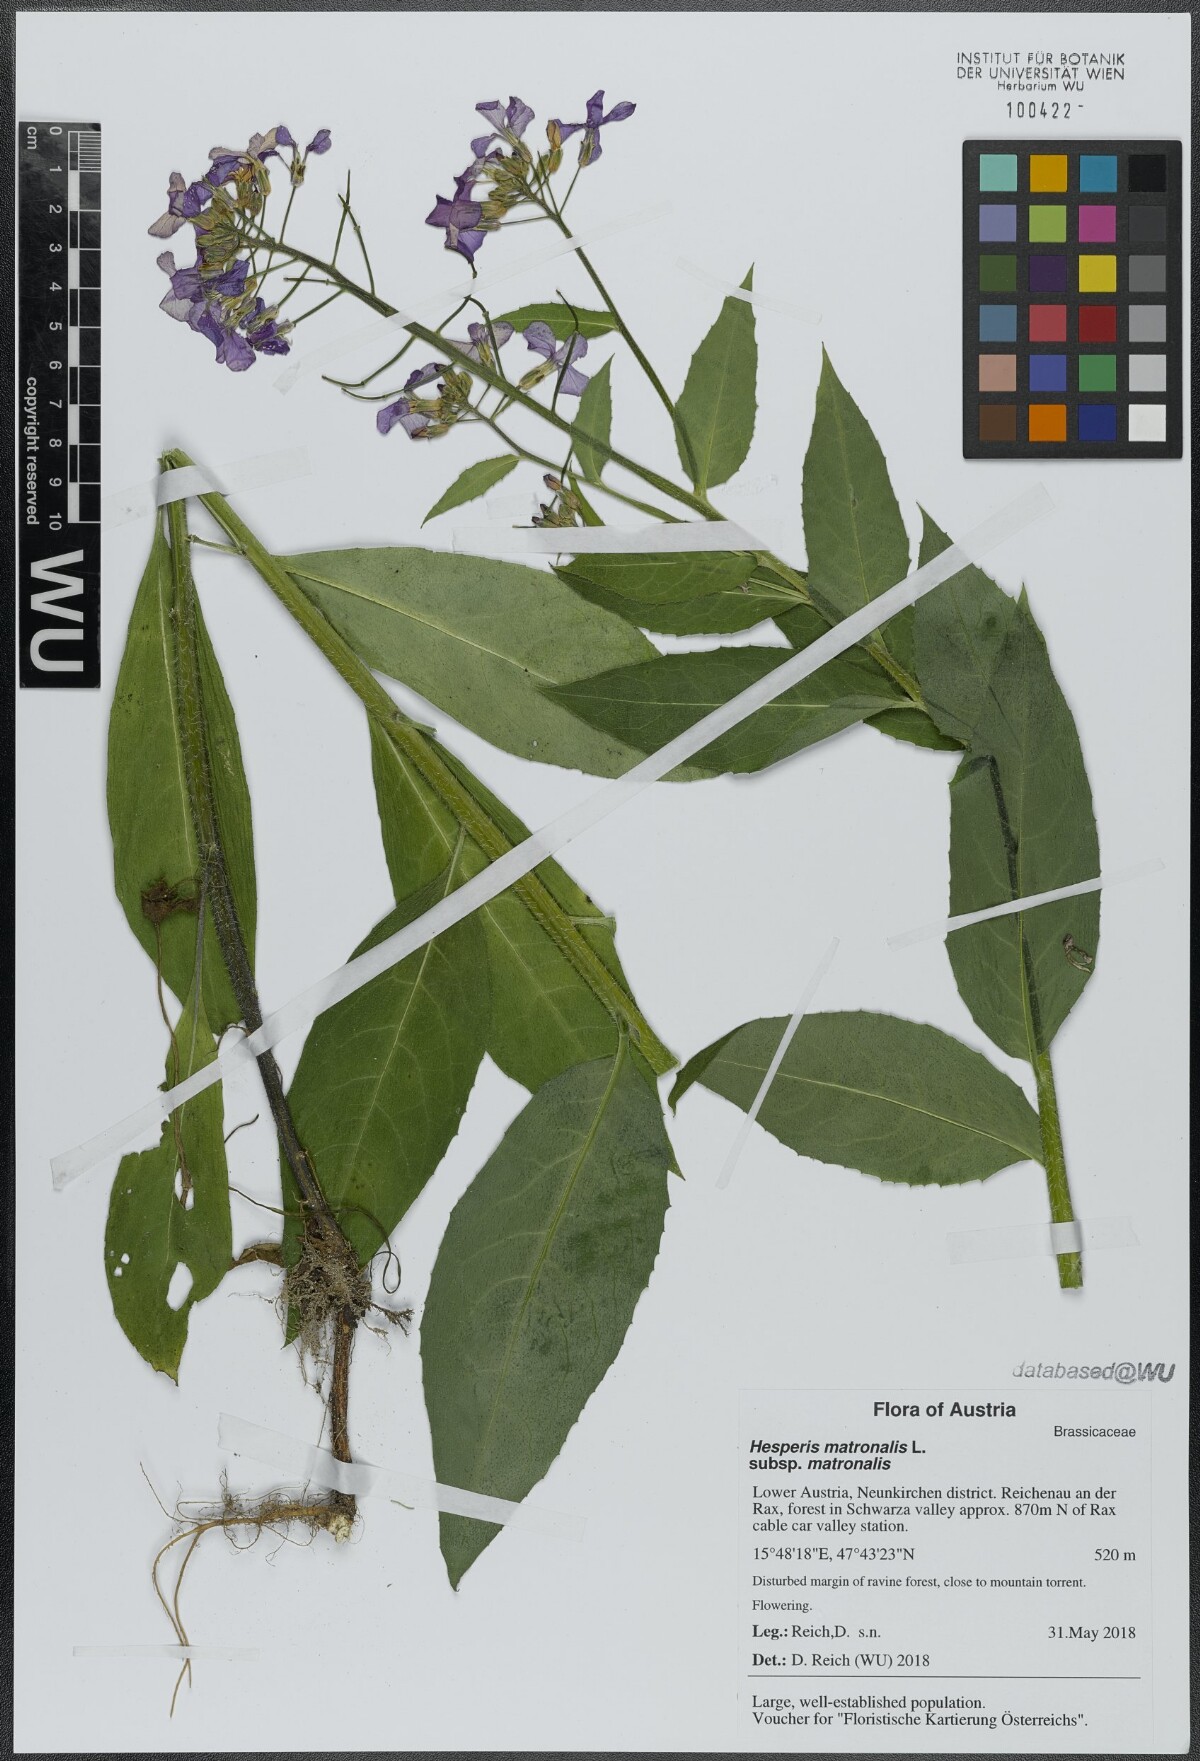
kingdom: Plantae
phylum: Tracheophyta
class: Magnoliopsida
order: Brassicales
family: Brassicaceae
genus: Hesperis
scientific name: Hesperis matronalis
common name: Dame's-violet
